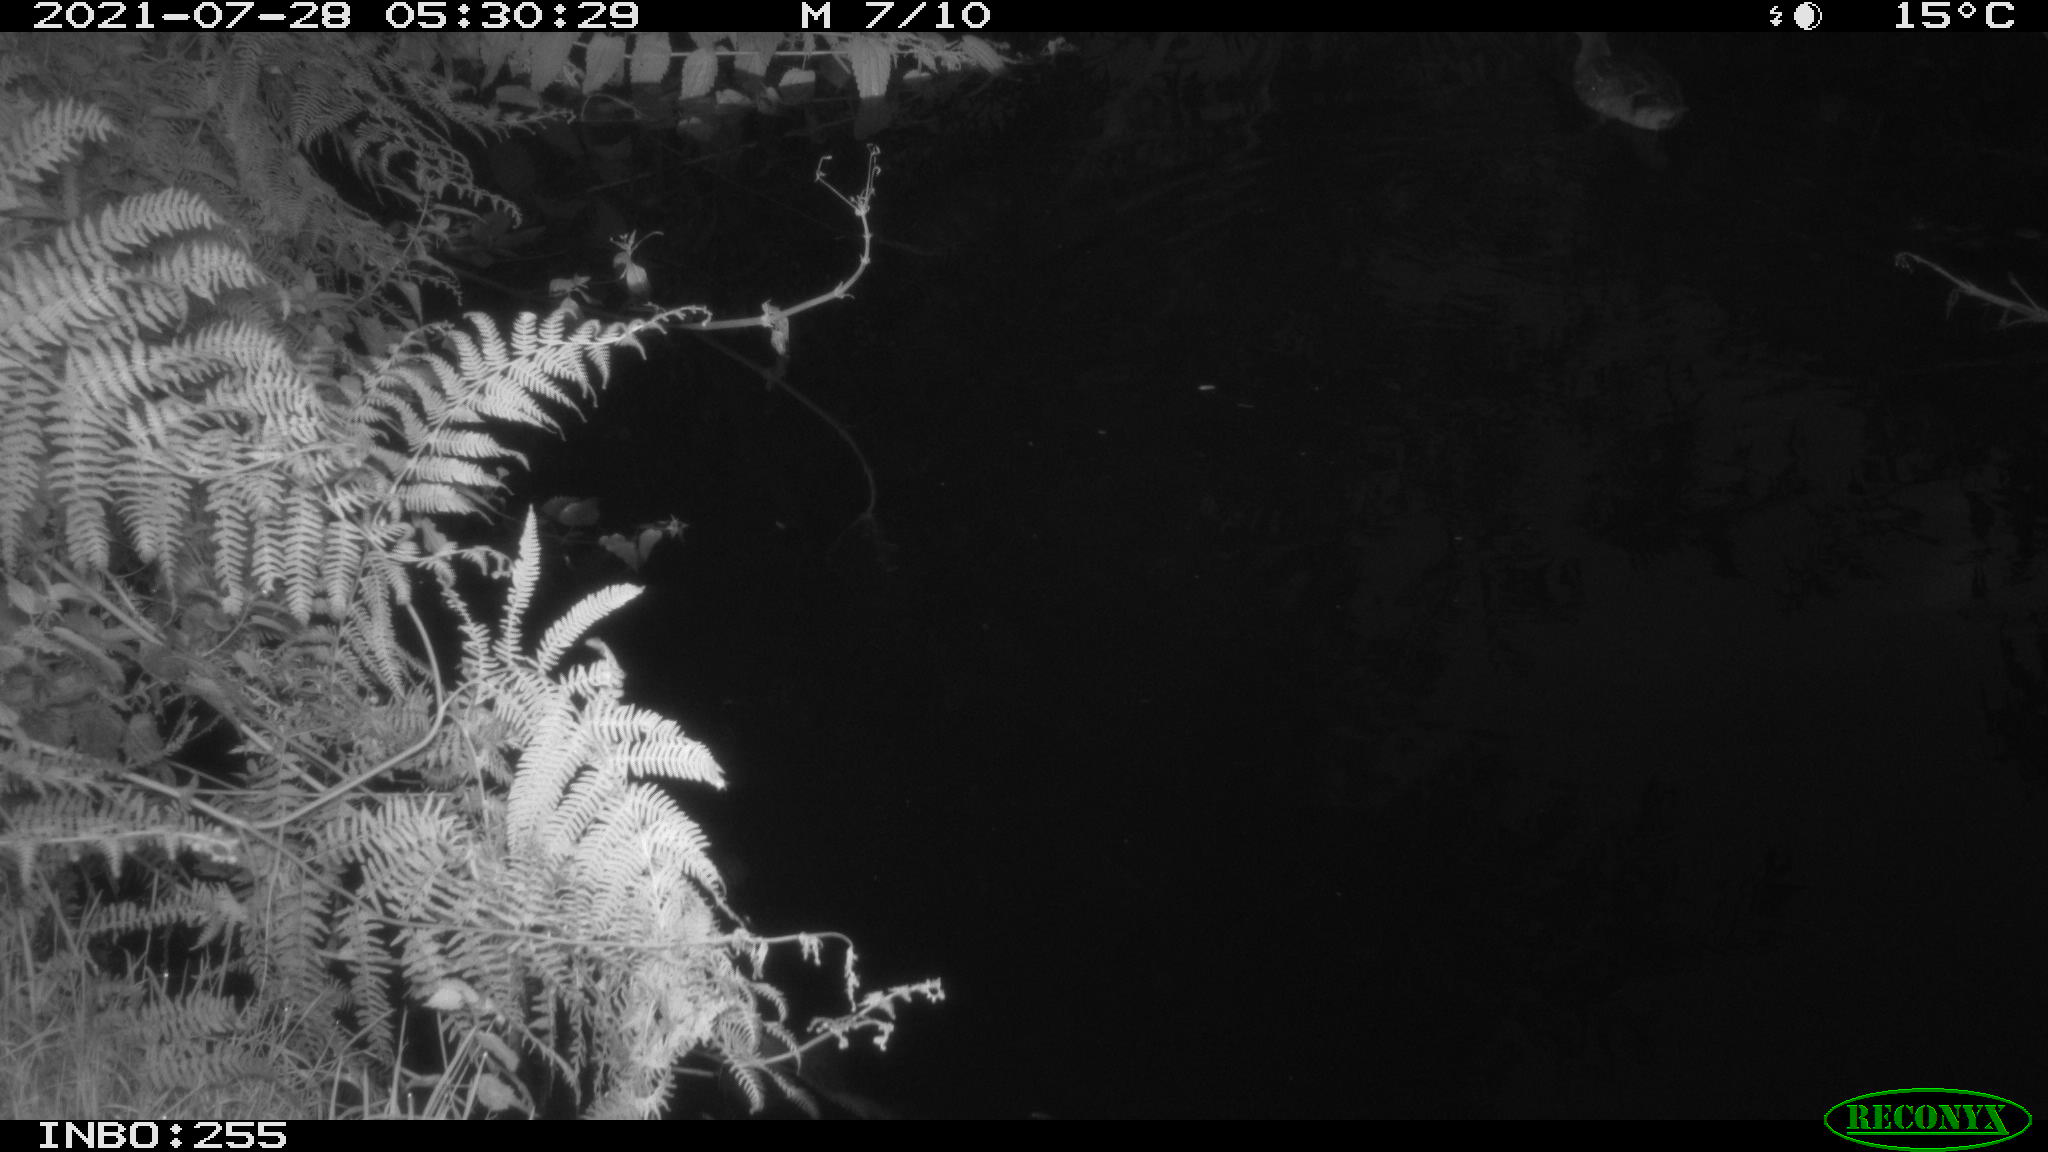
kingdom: Animalia
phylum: Chordata
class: Aves
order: Anseriformes
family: Anatidae
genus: Anas
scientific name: Anas platyrhynchos
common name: Mallard
